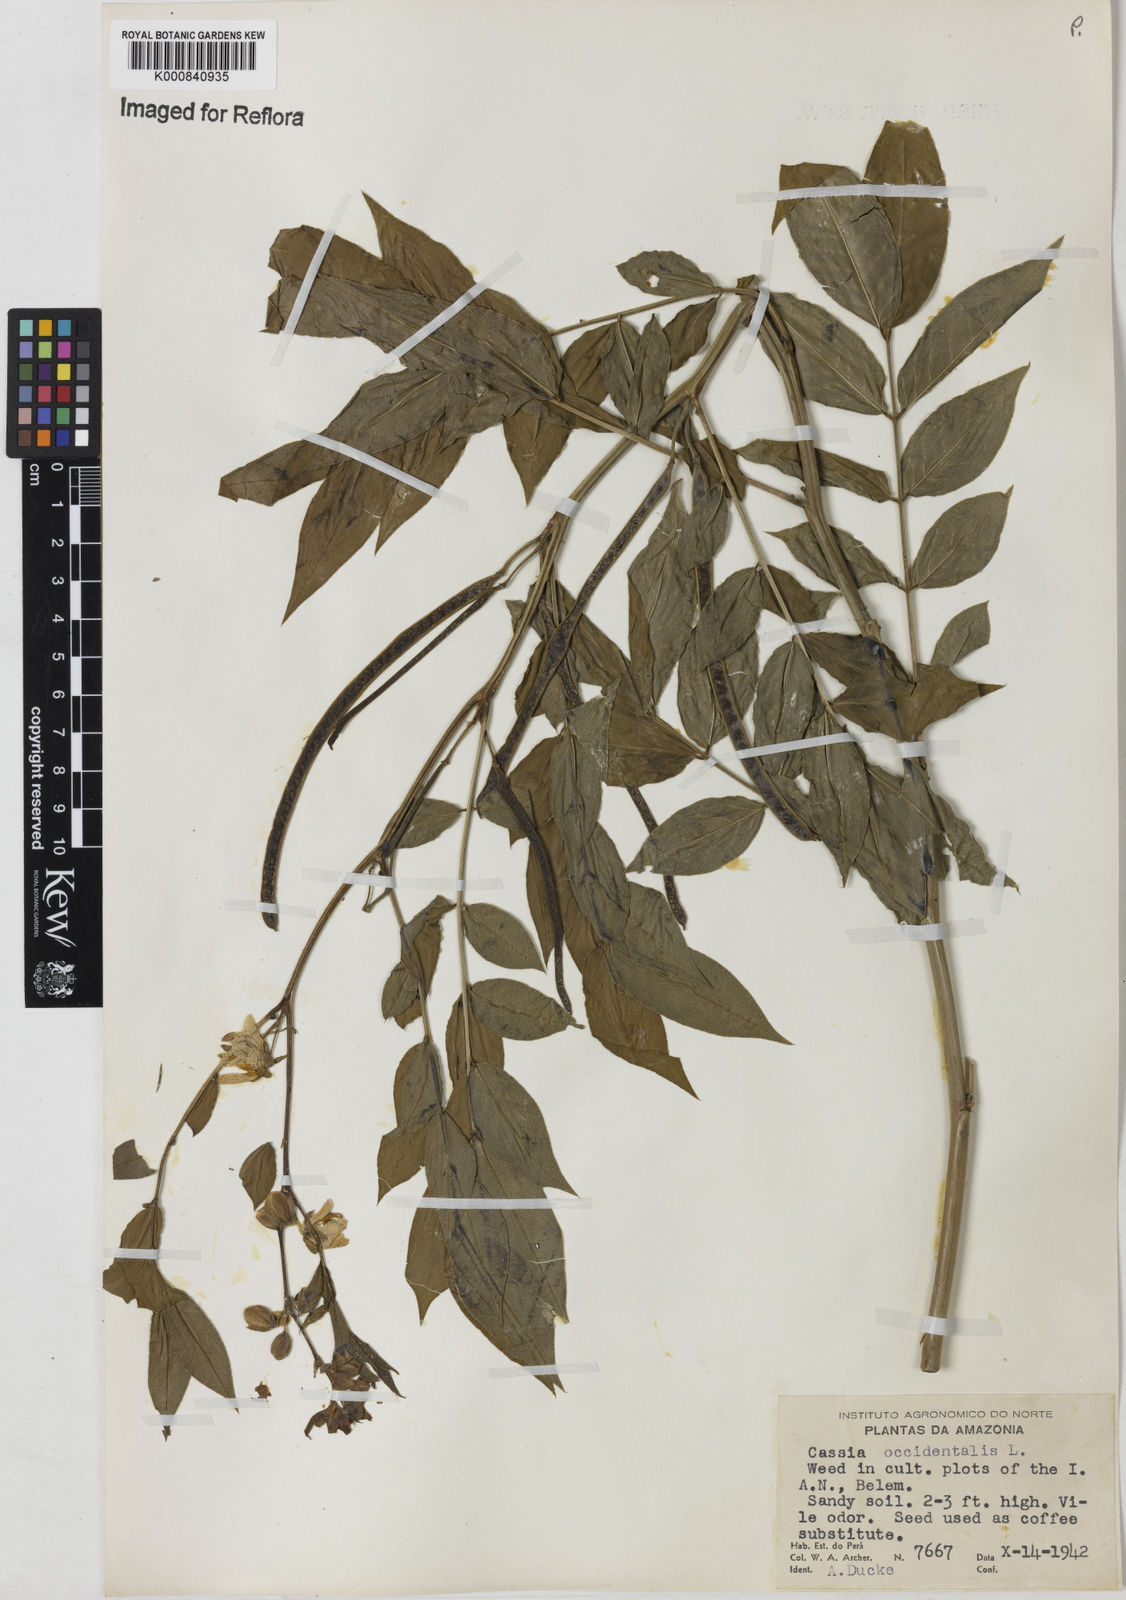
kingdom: Plantae
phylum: Tracheophyta
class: Magnoliopsida
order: Fabales
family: Fabaceae
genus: Senna
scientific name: Senna occidentalis
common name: Septicweed
